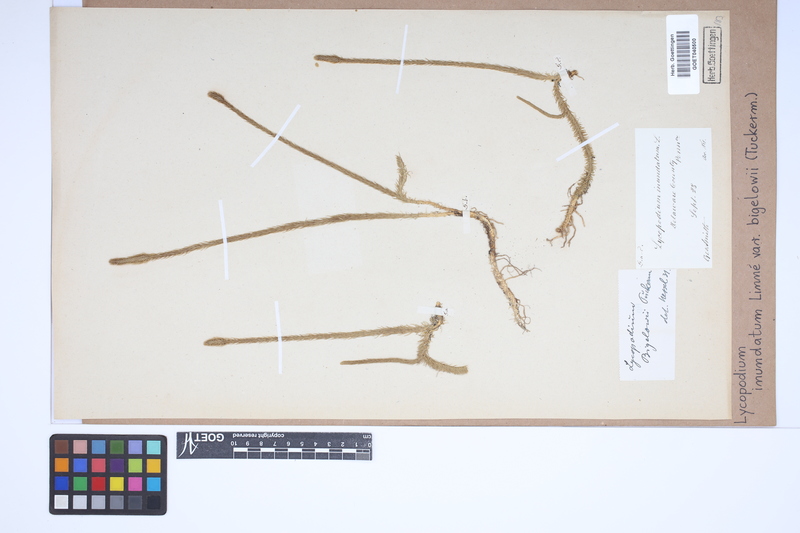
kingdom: Plantae
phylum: Tracheophyta
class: Lycopodiopsida
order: Lycopodiales
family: Lycopodiaceae
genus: Lycopodiella
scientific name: Lycopodiella inundata
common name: Marsh clubmoss
